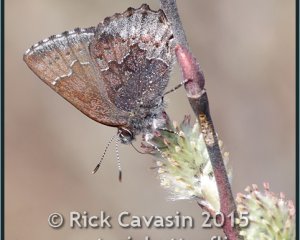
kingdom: Animalia
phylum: Arthropoda
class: Insecta
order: Lepidoptera
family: Lycaenidae
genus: Callophrys
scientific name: Callophrys polios
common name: Hoary Elfin
